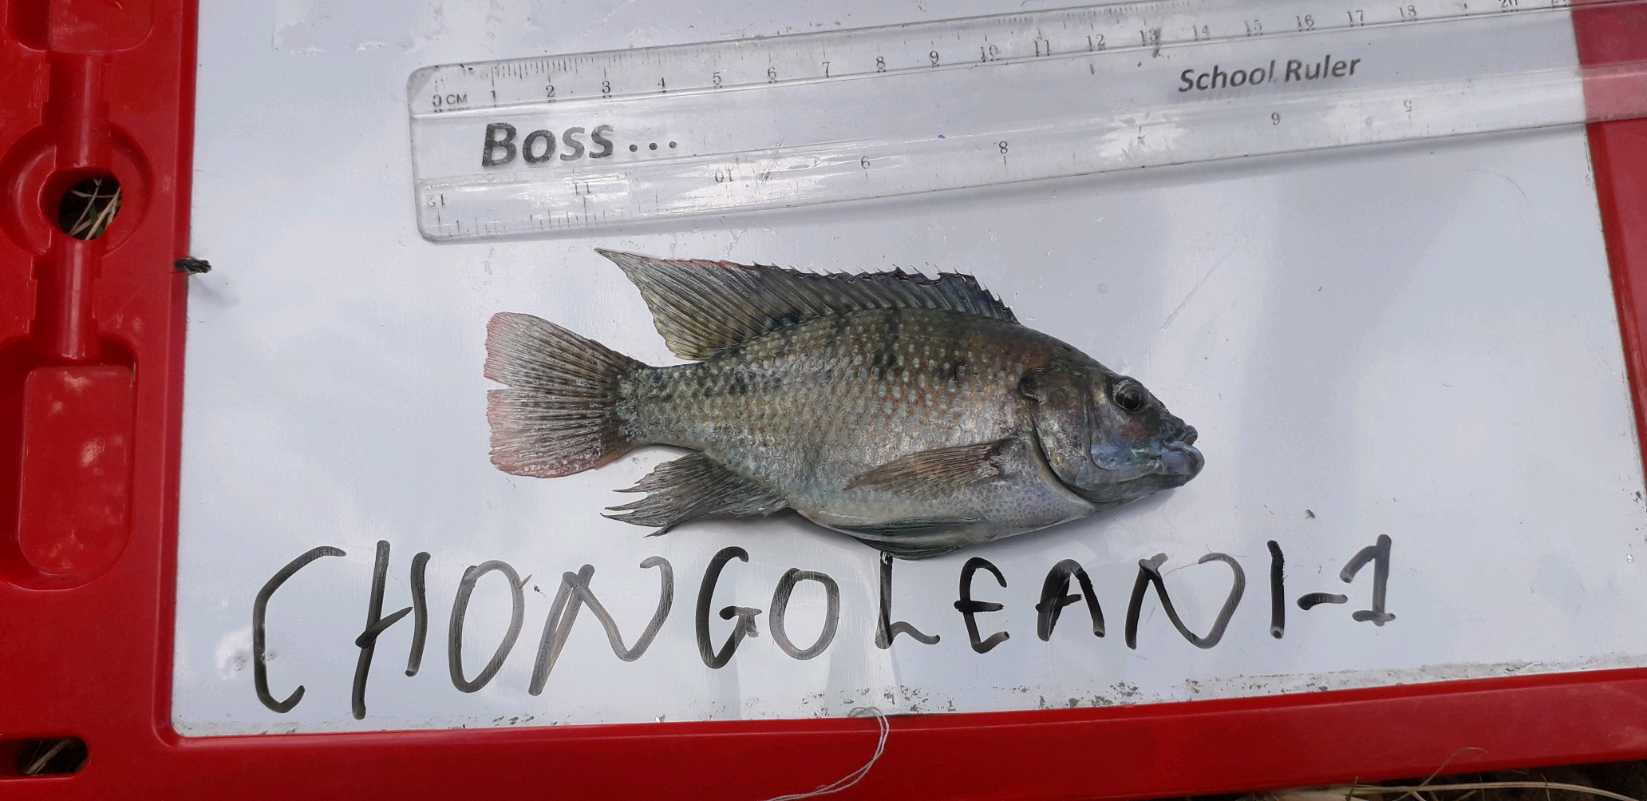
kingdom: Animalia
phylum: Chordata
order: Perciformes
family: Cichlidae
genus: Oreochromis
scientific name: Oreochromis urolepis
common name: Wami tilapia
